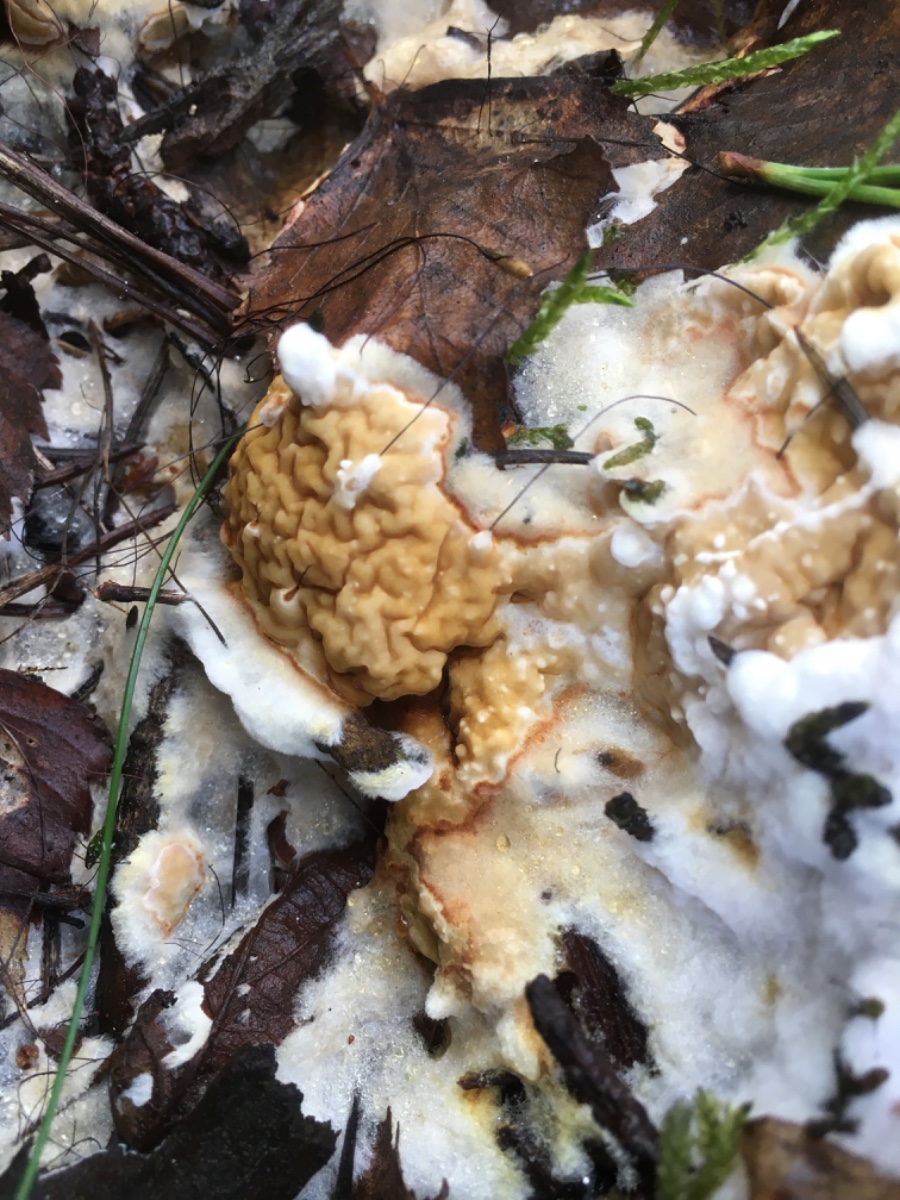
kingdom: Fungi
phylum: Basidiomycota
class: Agaricomycetes
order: Boletales
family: Serpulaceae
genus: Serpula
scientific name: Serpula himantioides
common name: tyndkødet hussvamp
